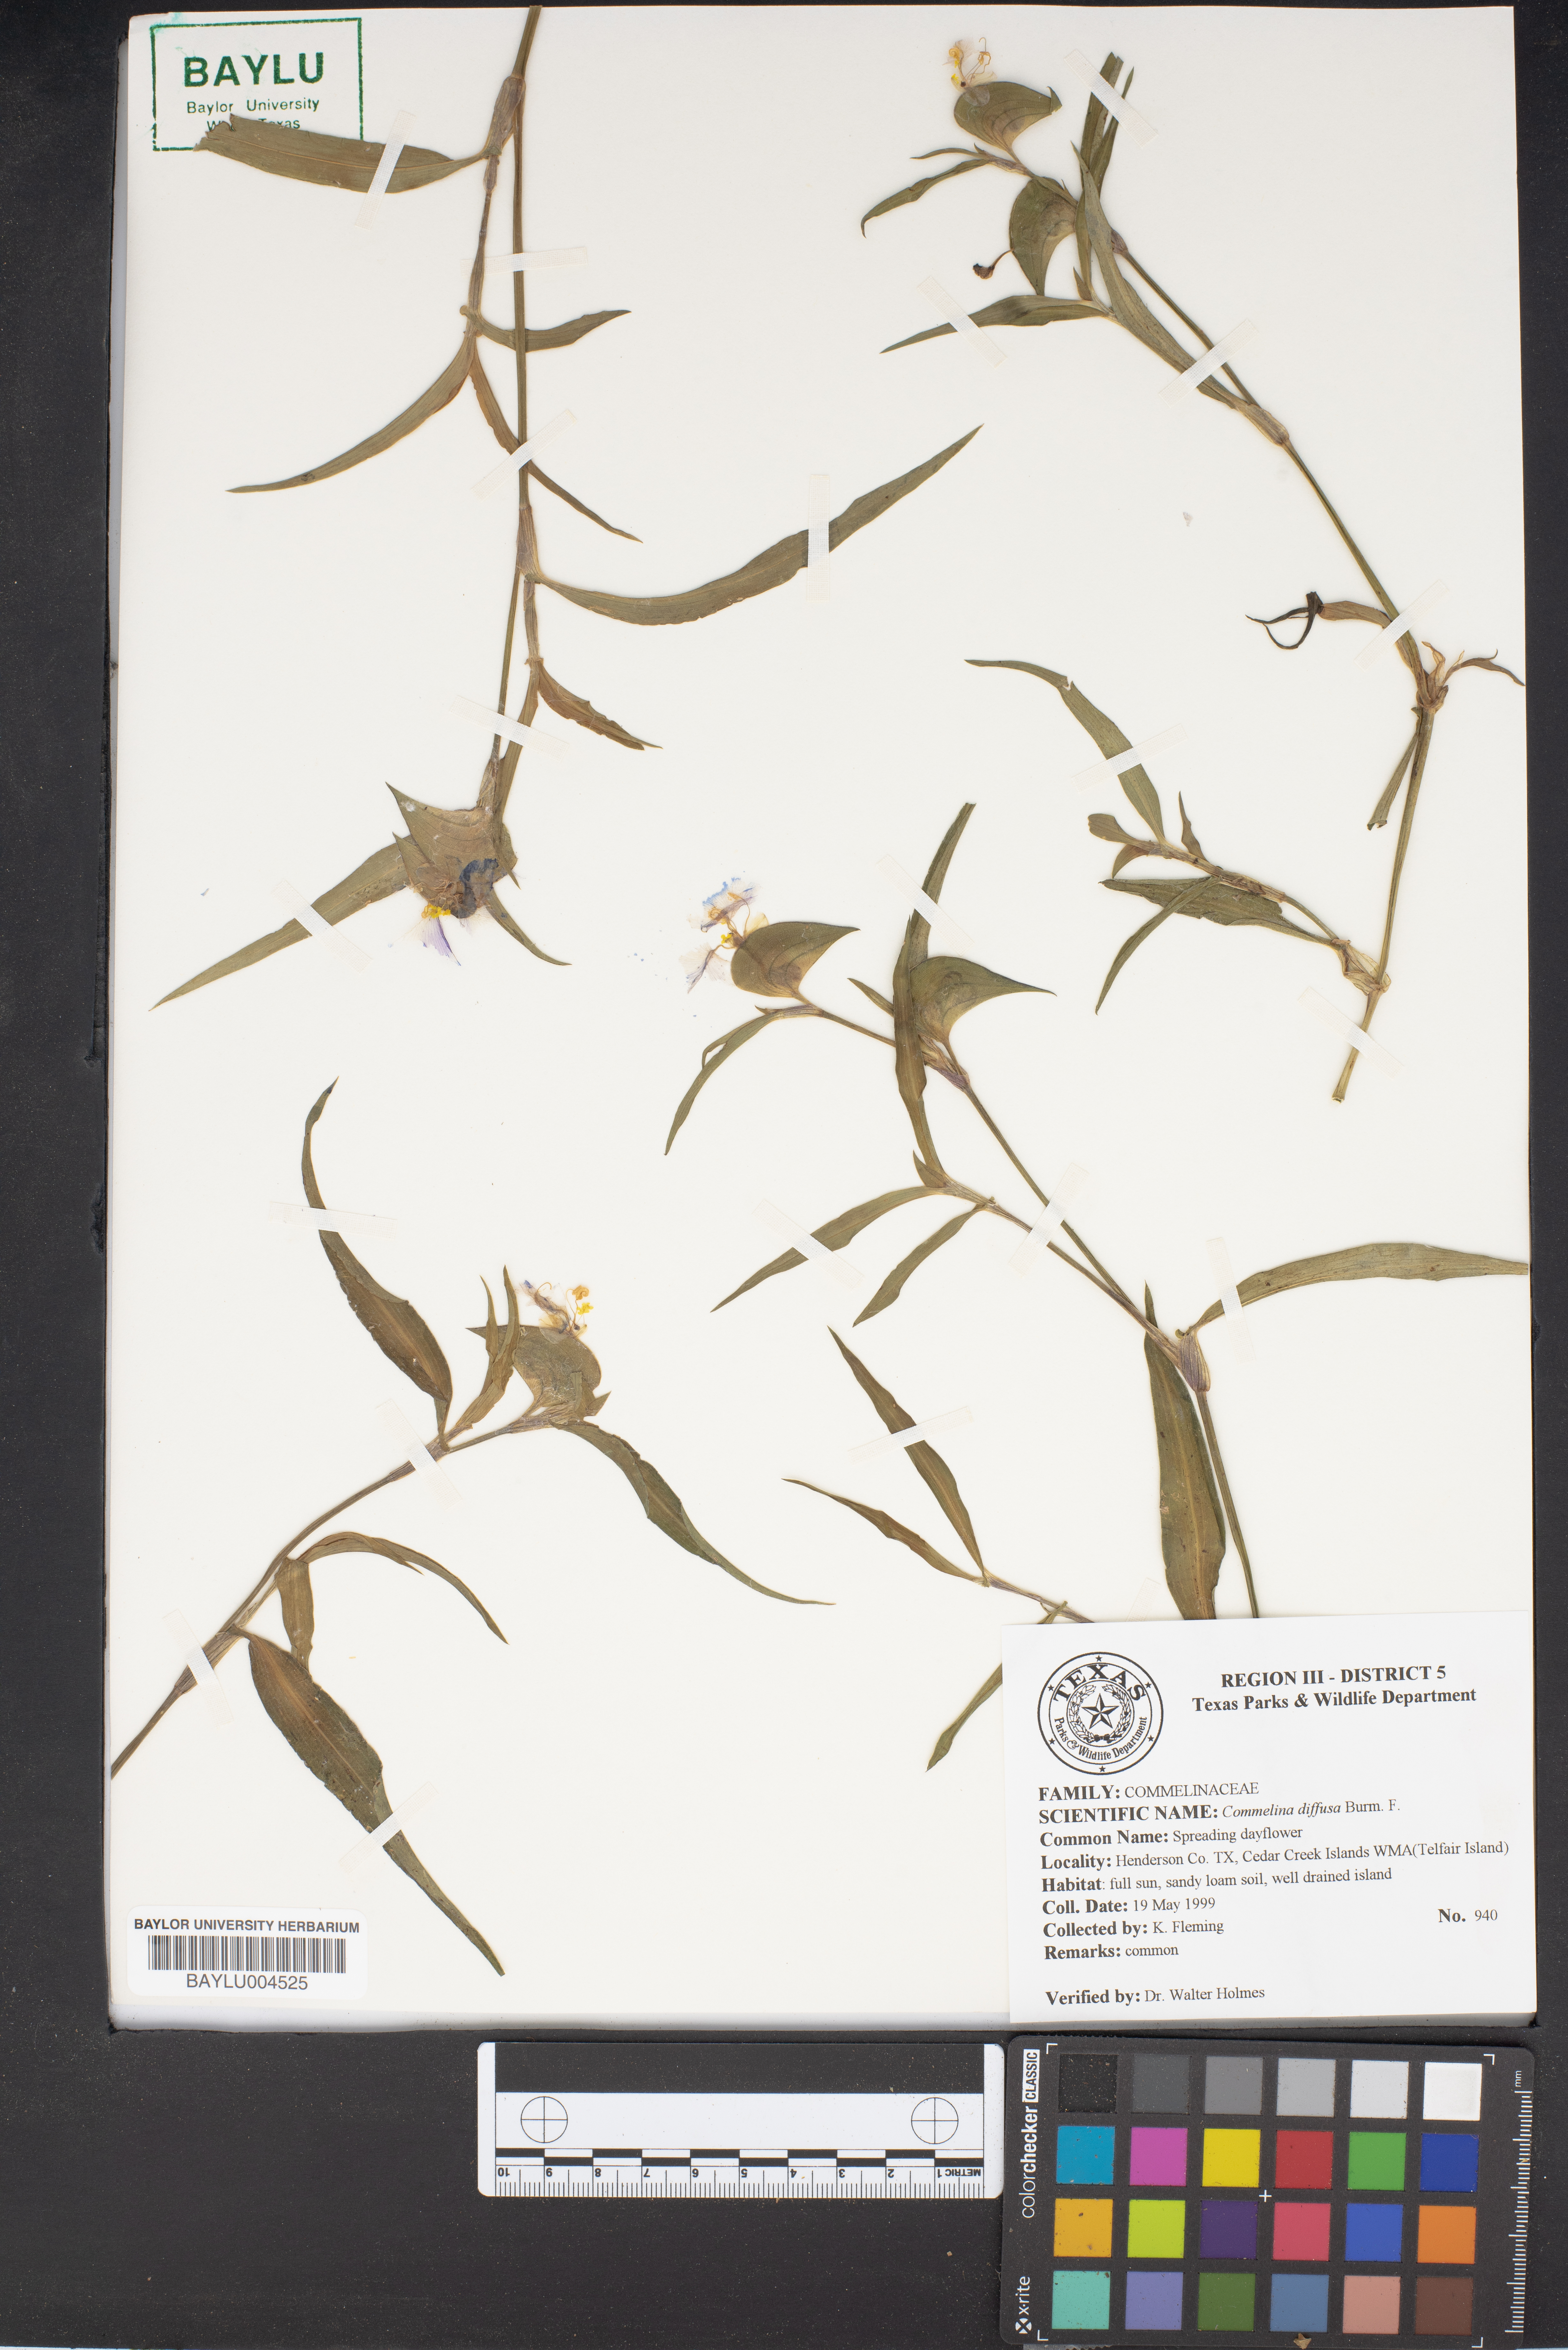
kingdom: Plantae
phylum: Tracheophyta
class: Liliopsida
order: Commelinales
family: Commelinaceae
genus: Commelina
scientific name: Commelina diffusa
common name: Climbing dayflower
